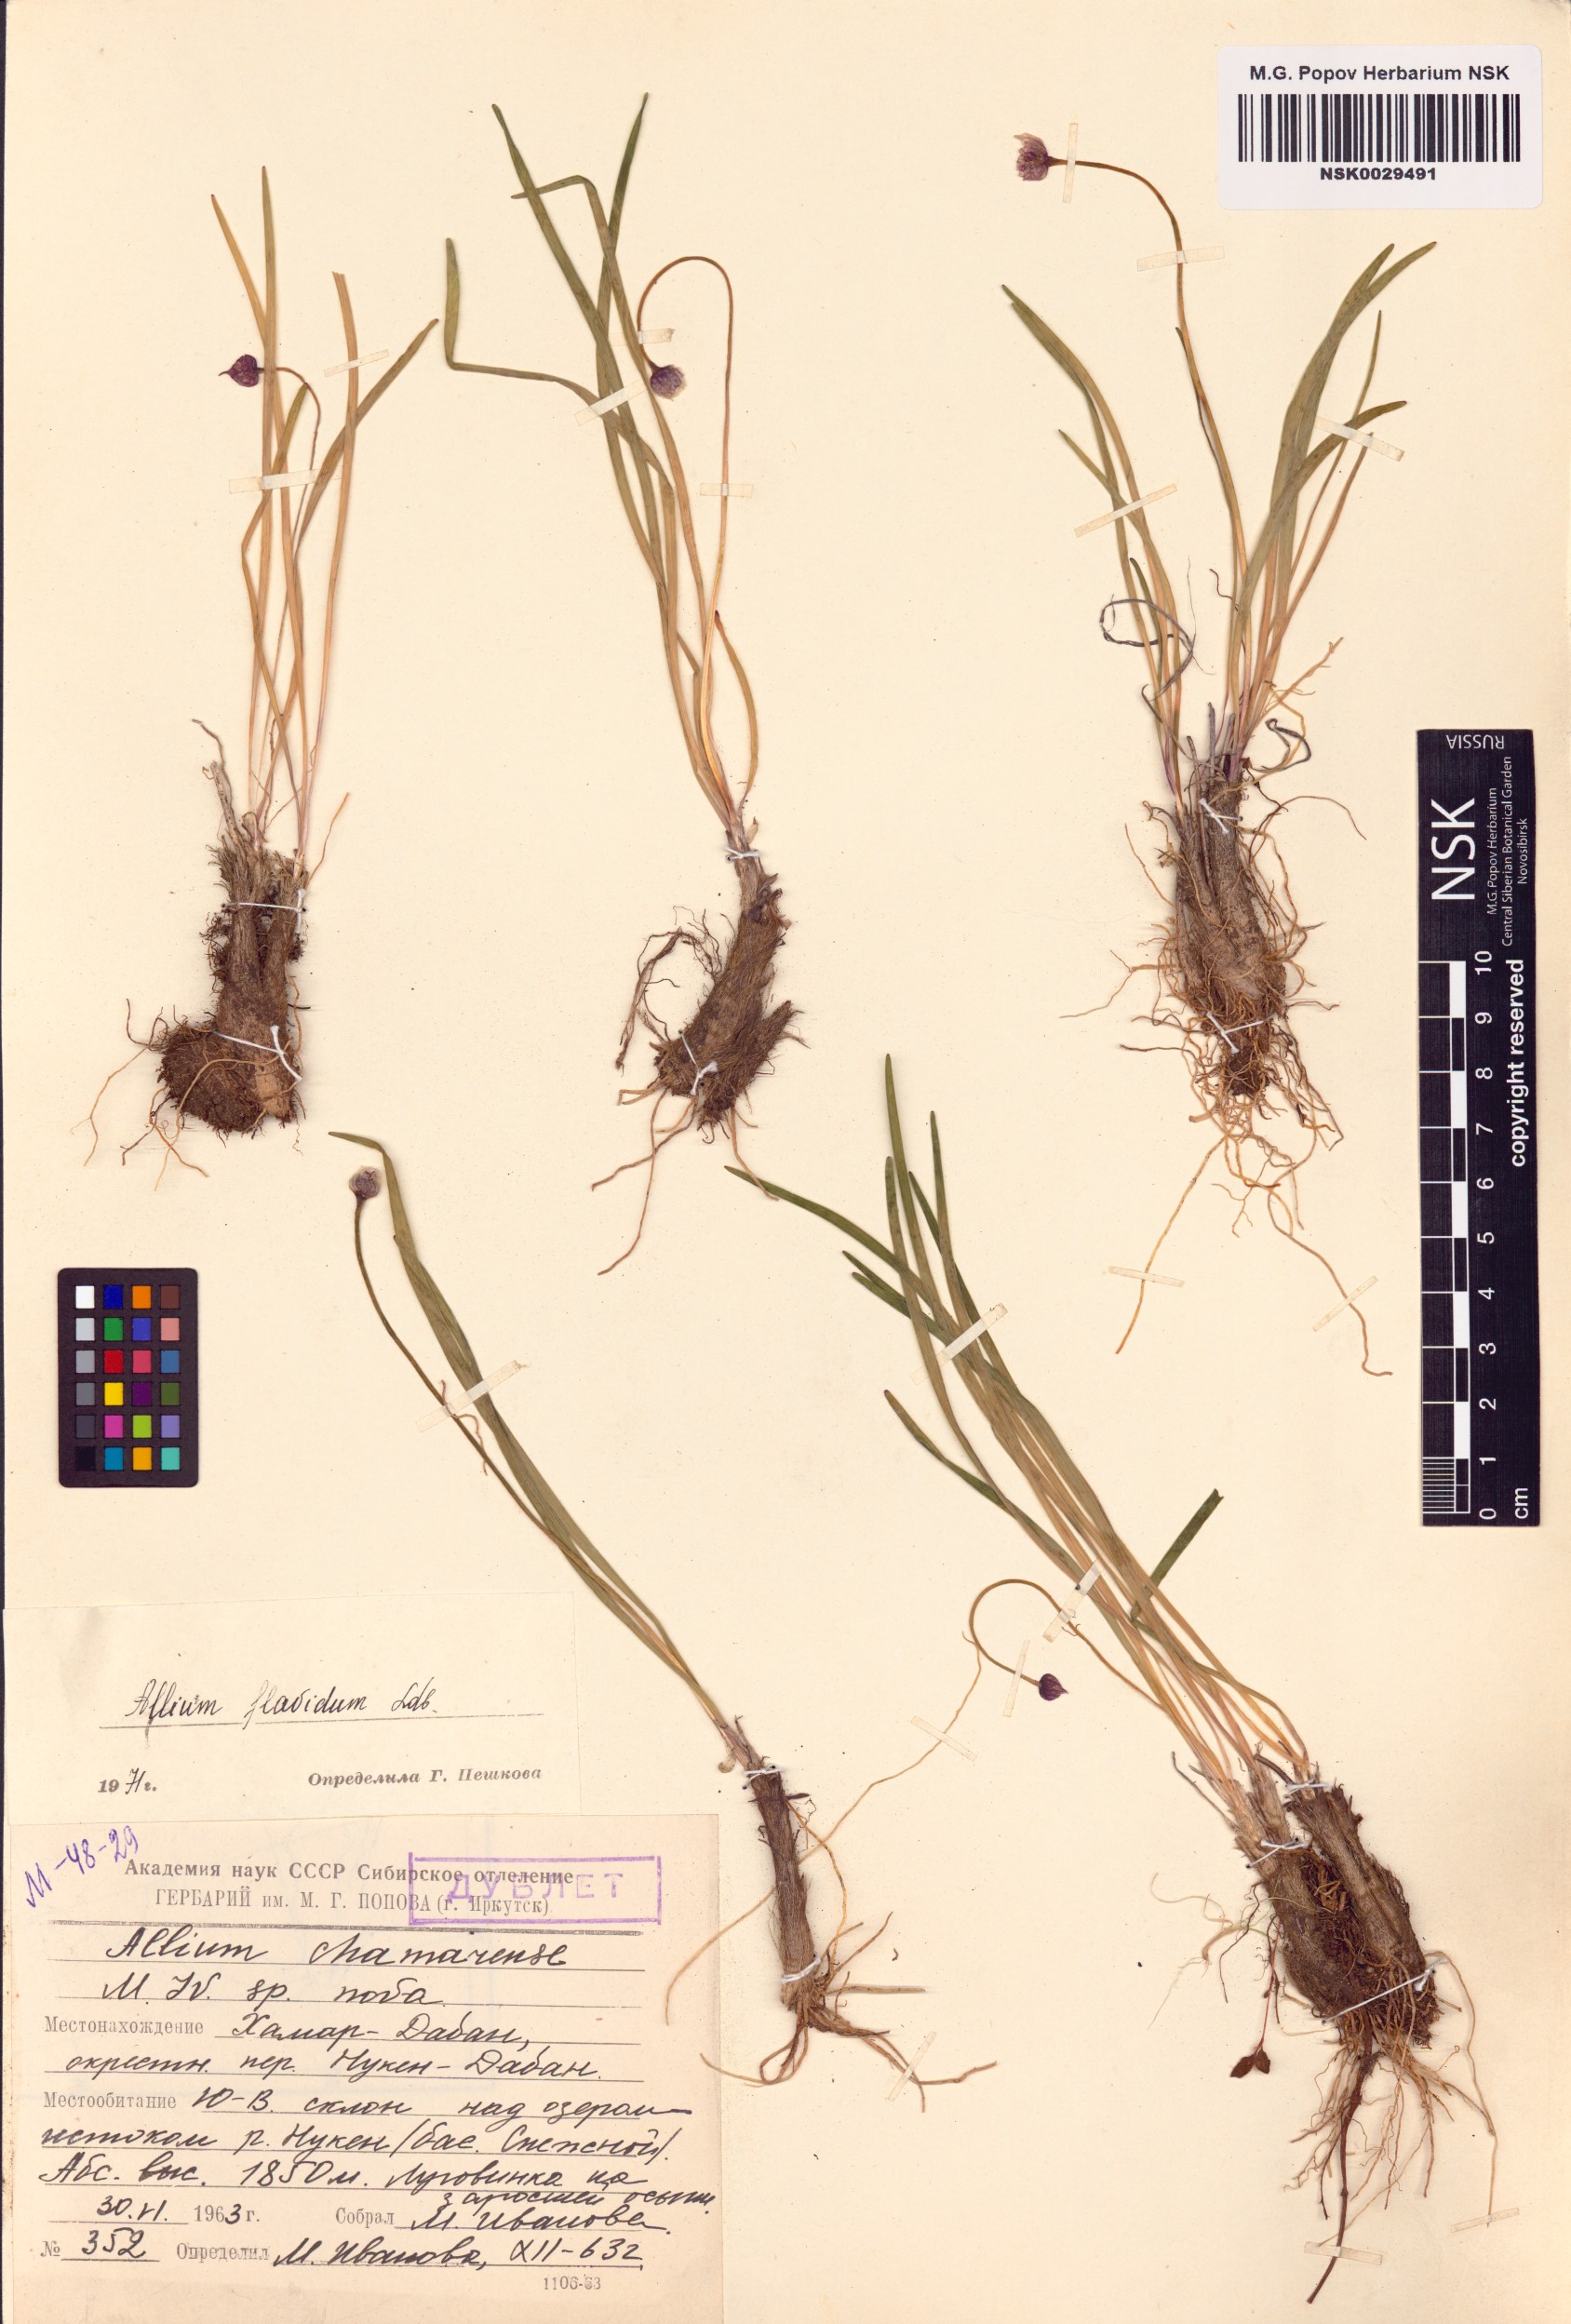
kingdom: Plantae
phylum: Tracheophyta
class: Liliopsida
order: Asparagales
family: Amaryllidaceae
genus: Allium
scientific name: Allium flavidum
